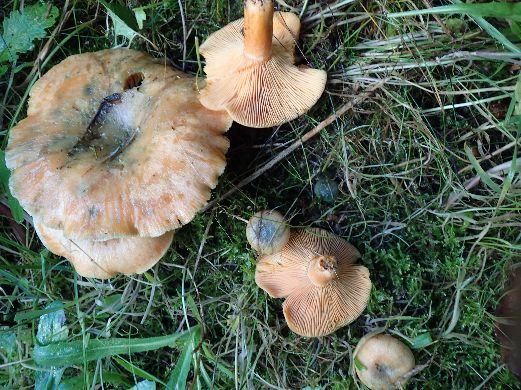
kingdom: Fungi
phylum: Basidiomycota
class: Agaricomycetes
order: Russulales
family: Russulaceae
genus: Lactarius
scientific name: Lactarius deterrimus
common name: gran-mælkehat
